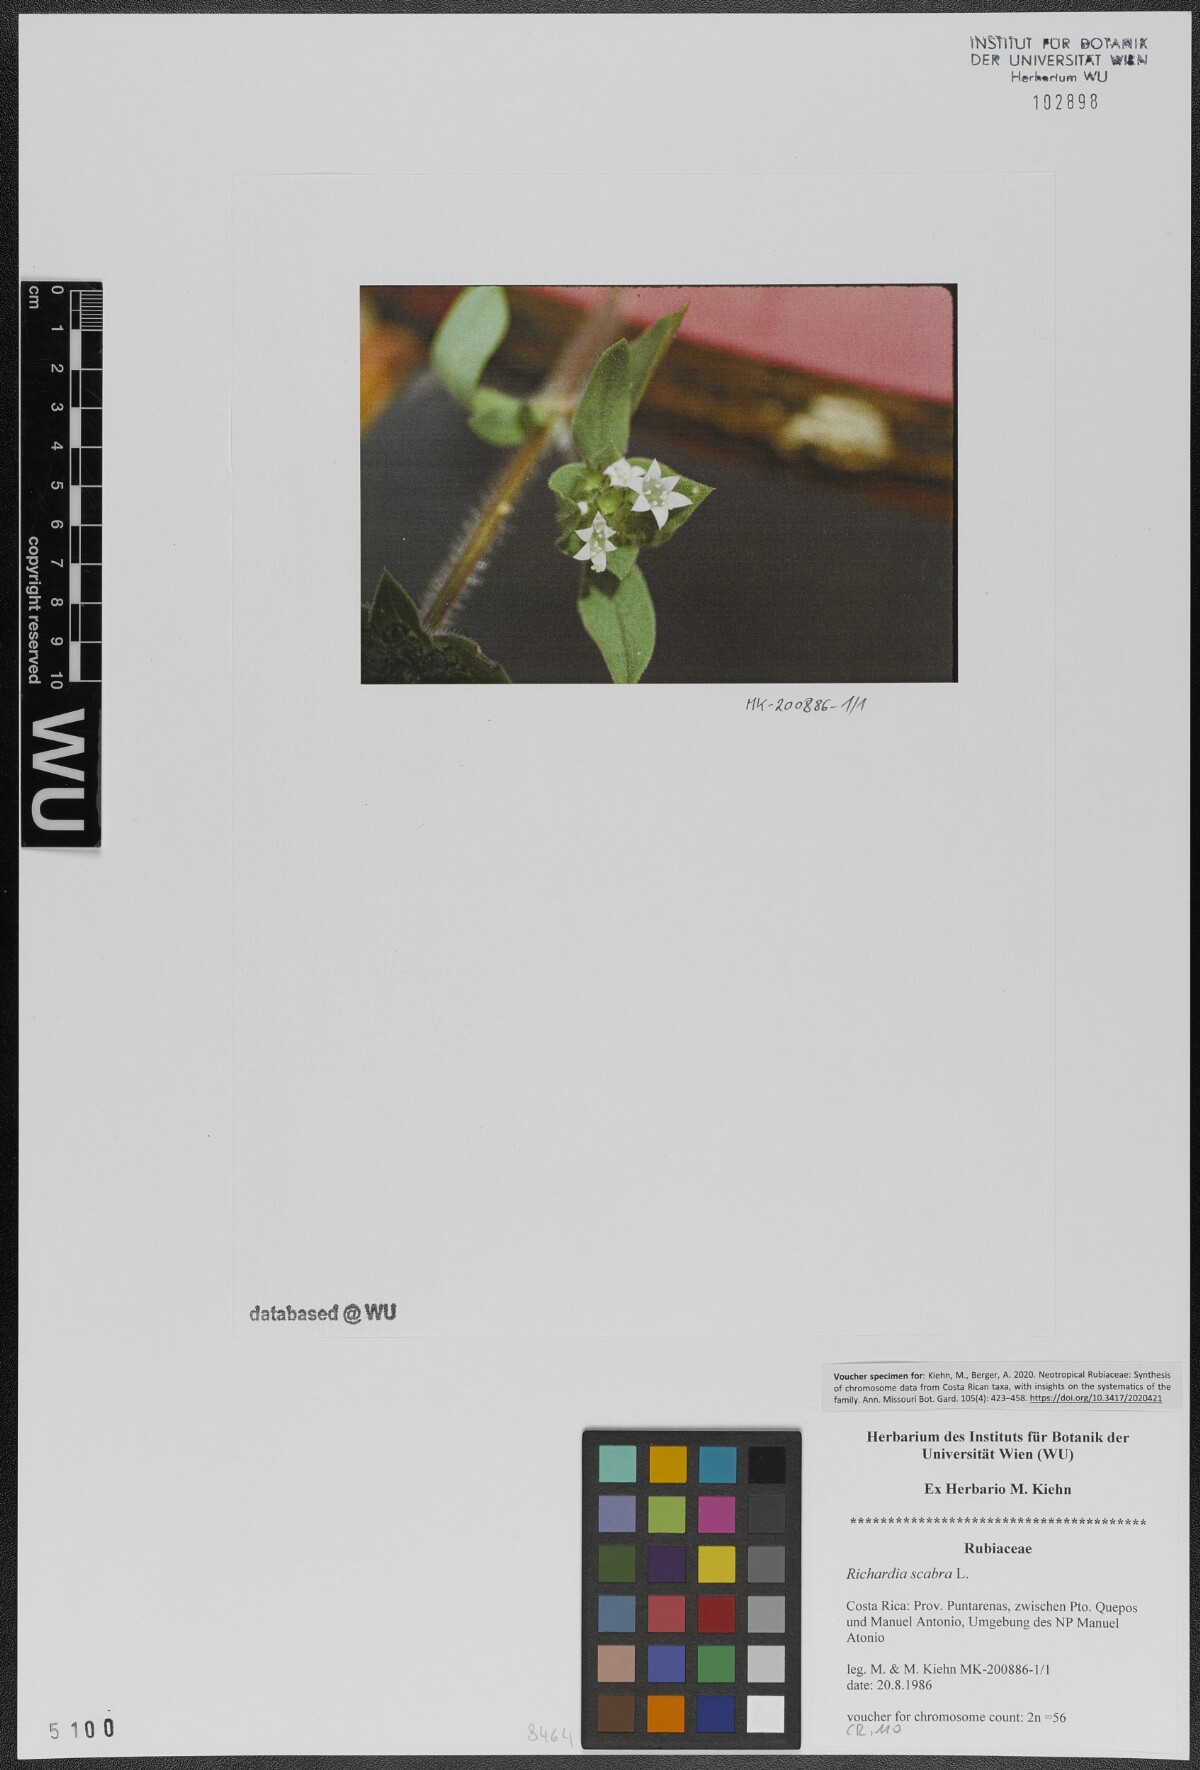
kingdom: Plantae
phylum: Tracheophyta
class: Magnoliopsida
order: Gentianales
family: Rubiaceae
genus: Richardia
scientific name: Richardia scabra
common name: Rough mexican clover
